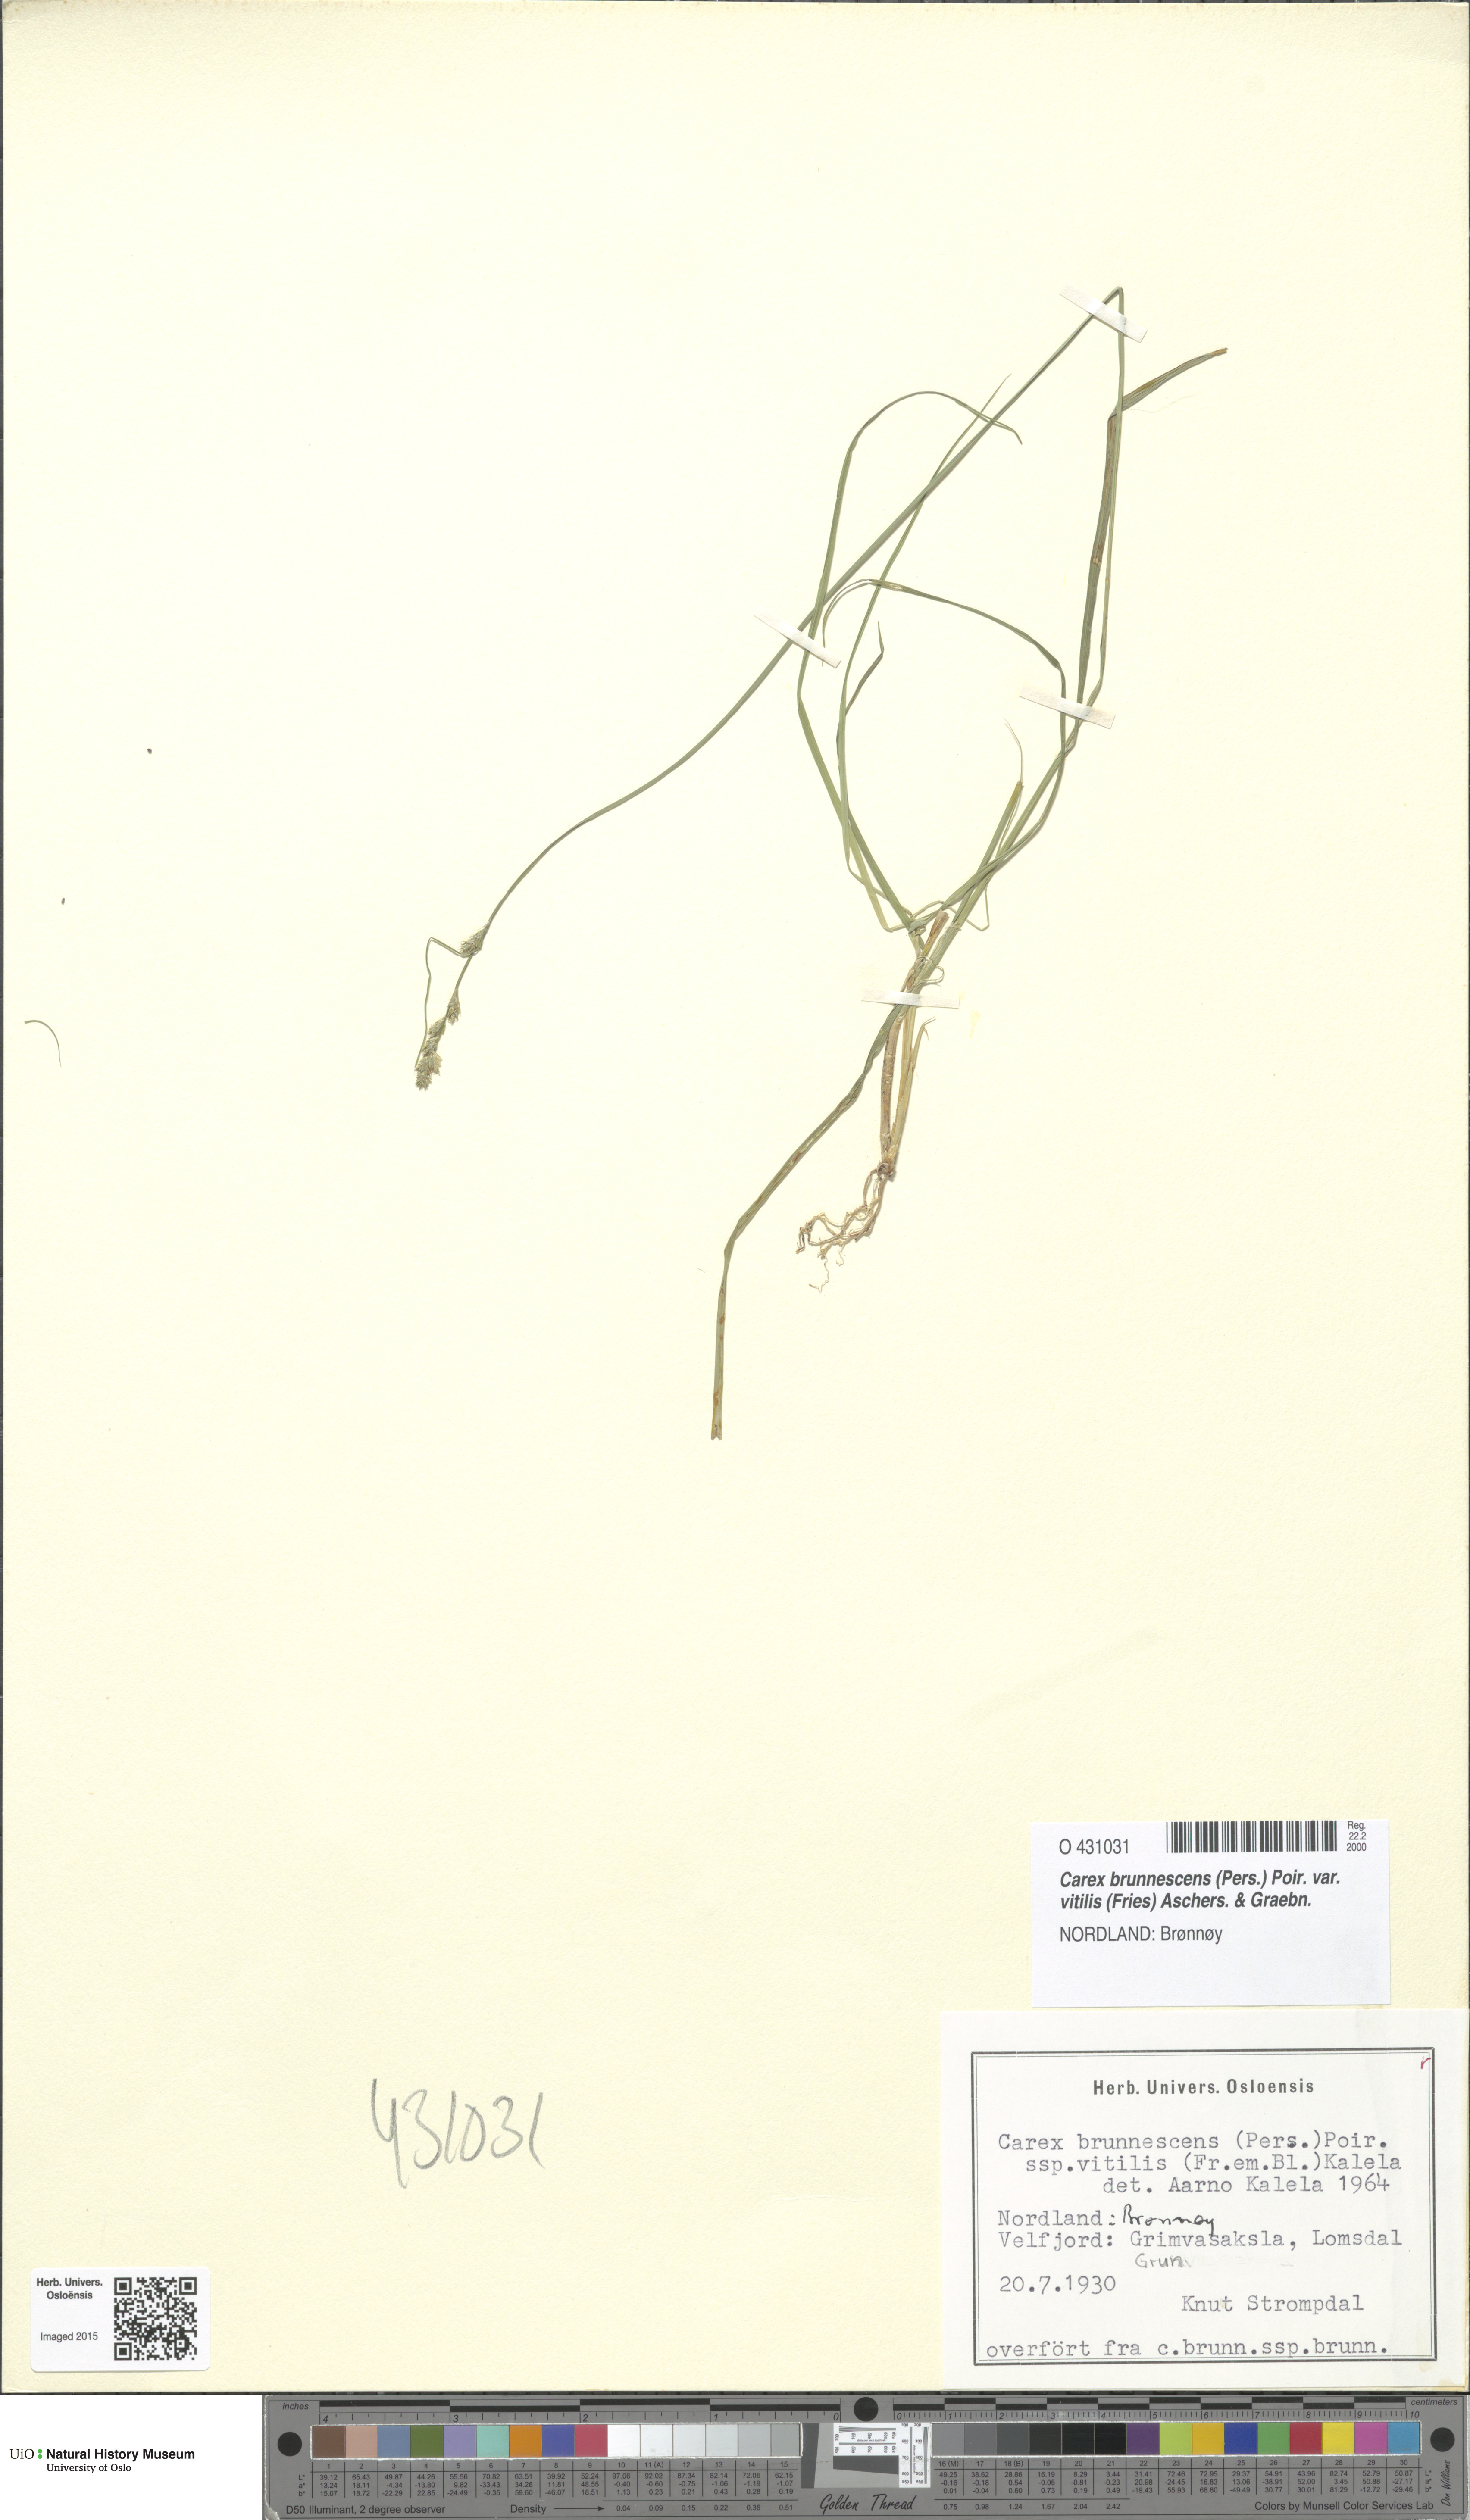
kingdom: Plantae
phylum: Tracheophyta
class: Liliopsida
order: Poales
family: Cyperaceae
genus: Carex
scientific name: Carex brunnescens
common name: Brown sedge
